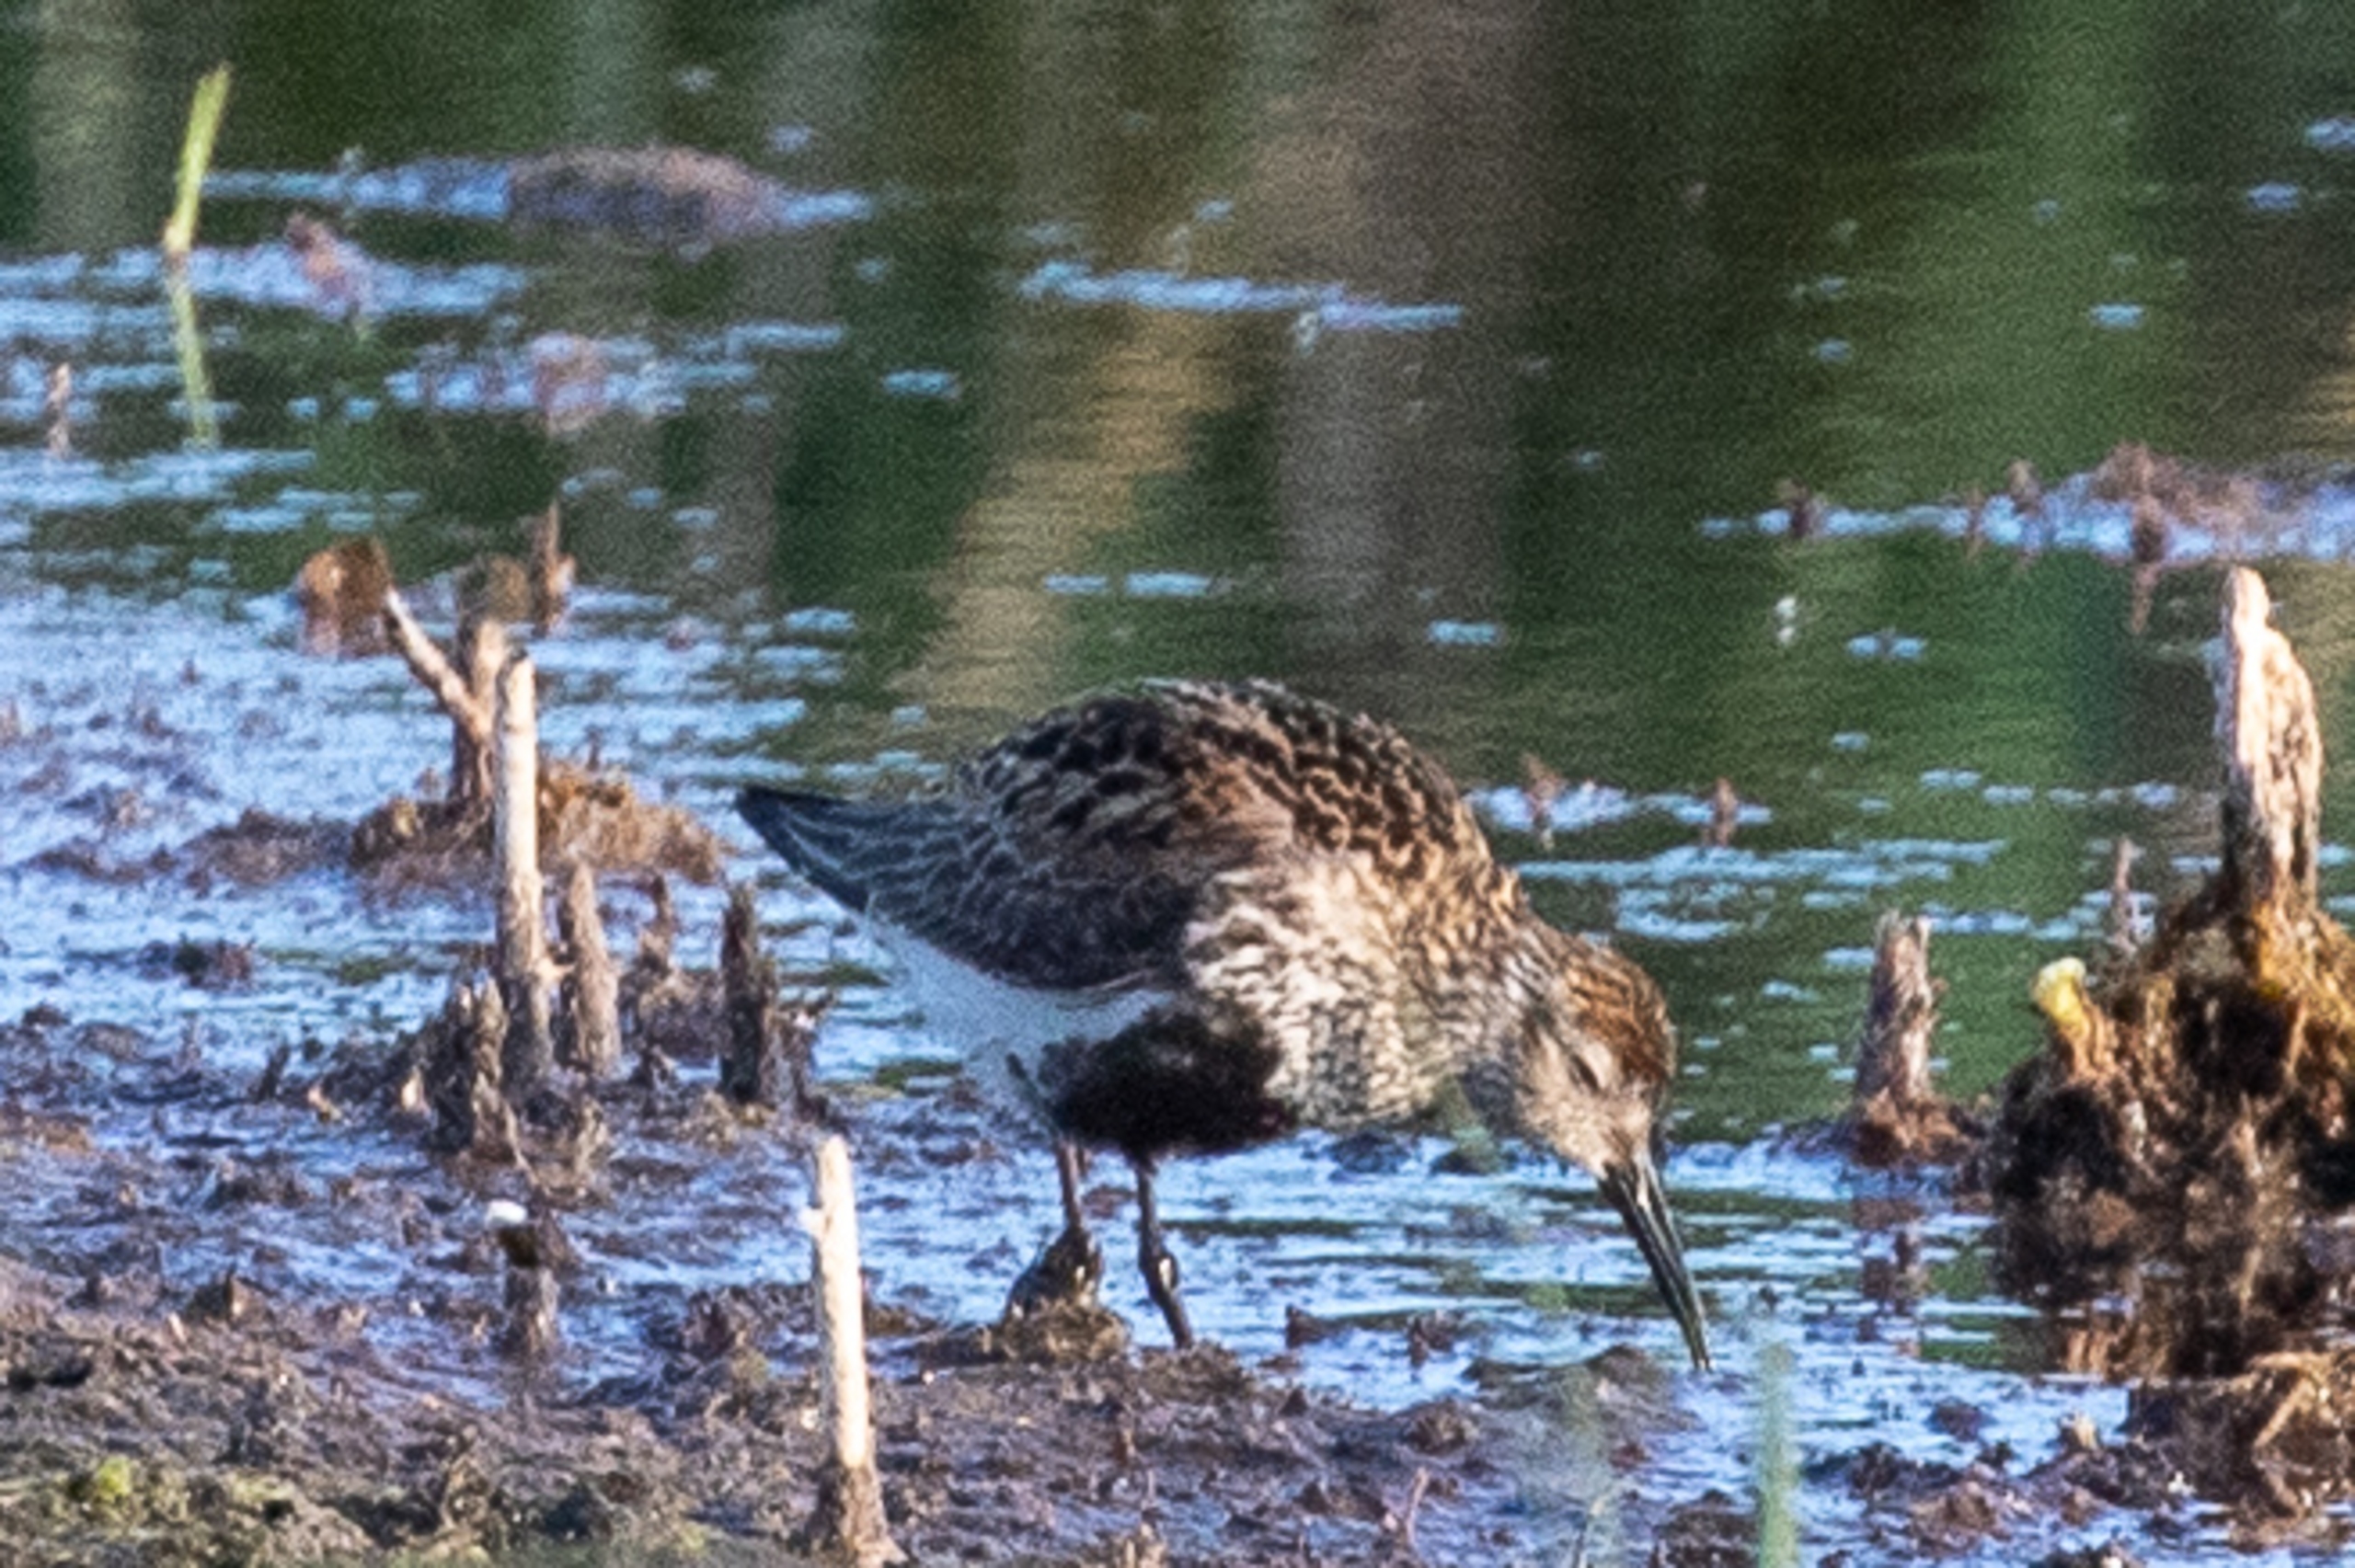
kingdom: Animalia
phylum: Chordata
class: Aves
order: Charadriiformes
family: Scolopacidae
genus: Calidris
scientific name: Calidris alpina
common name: Almindelig ryle
